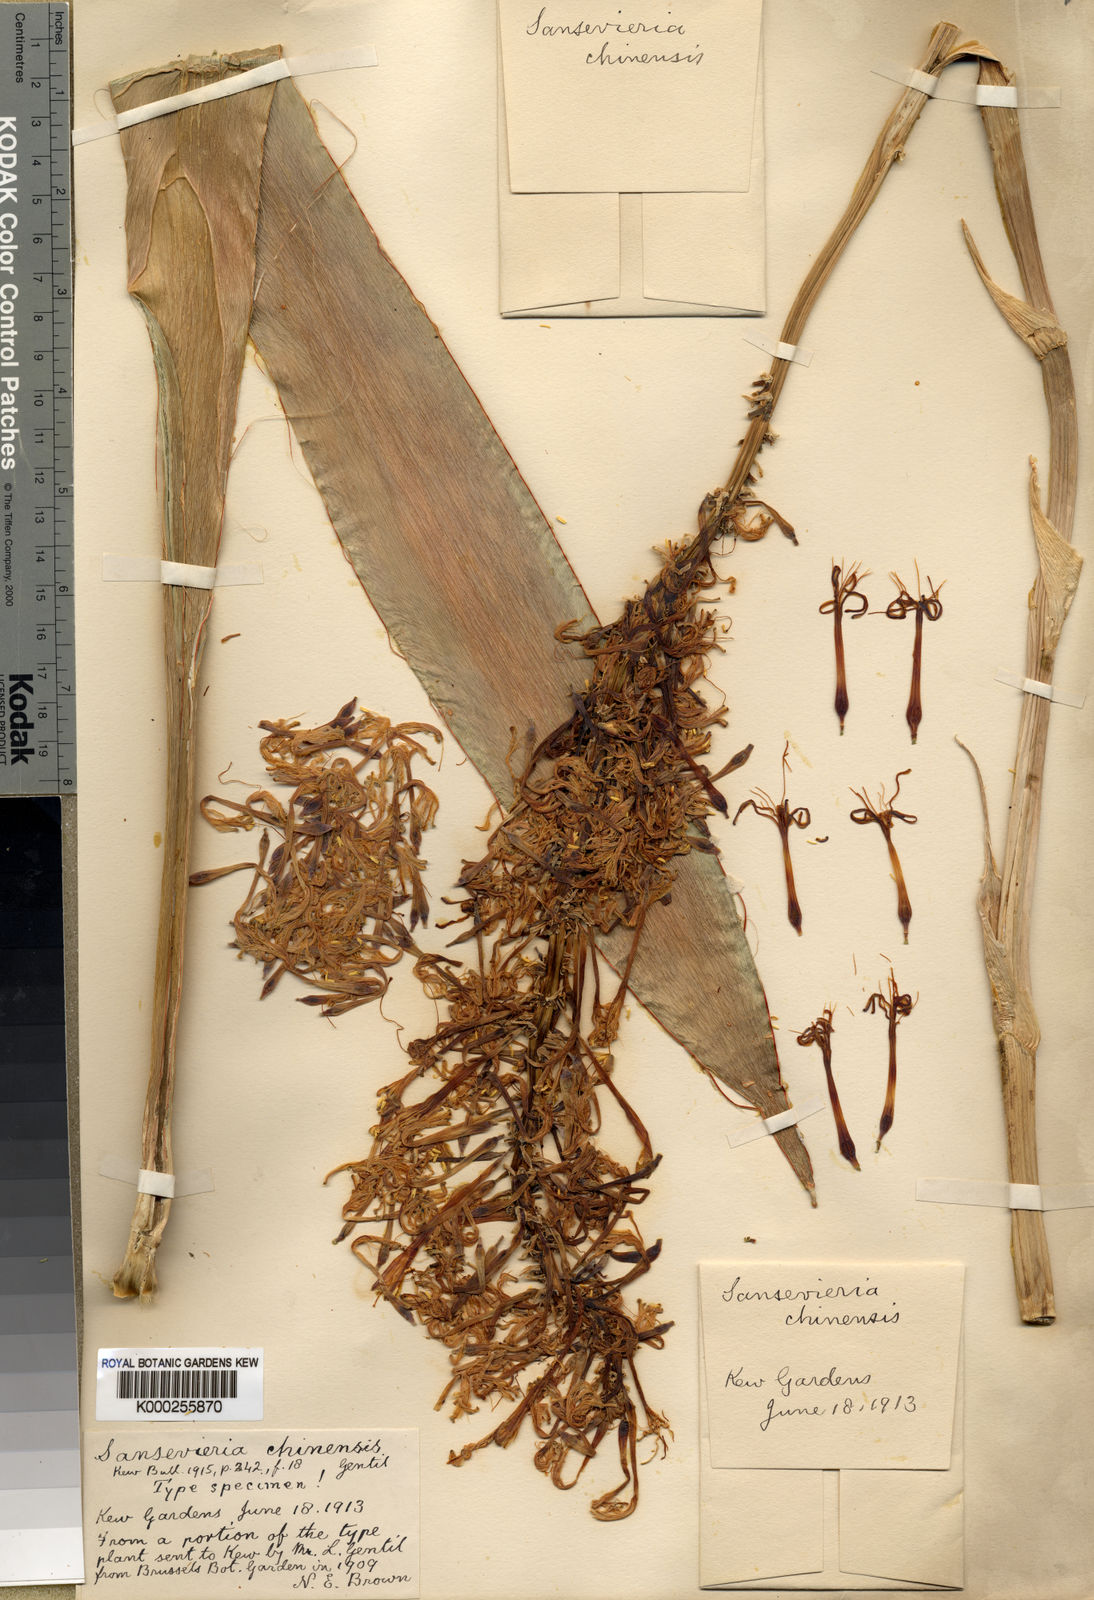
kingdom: Plantae
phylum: Tracheophyta
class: Liliopsida
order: Asparagales
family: Asparagaceae
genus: Dracaena
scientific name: Dracaena
